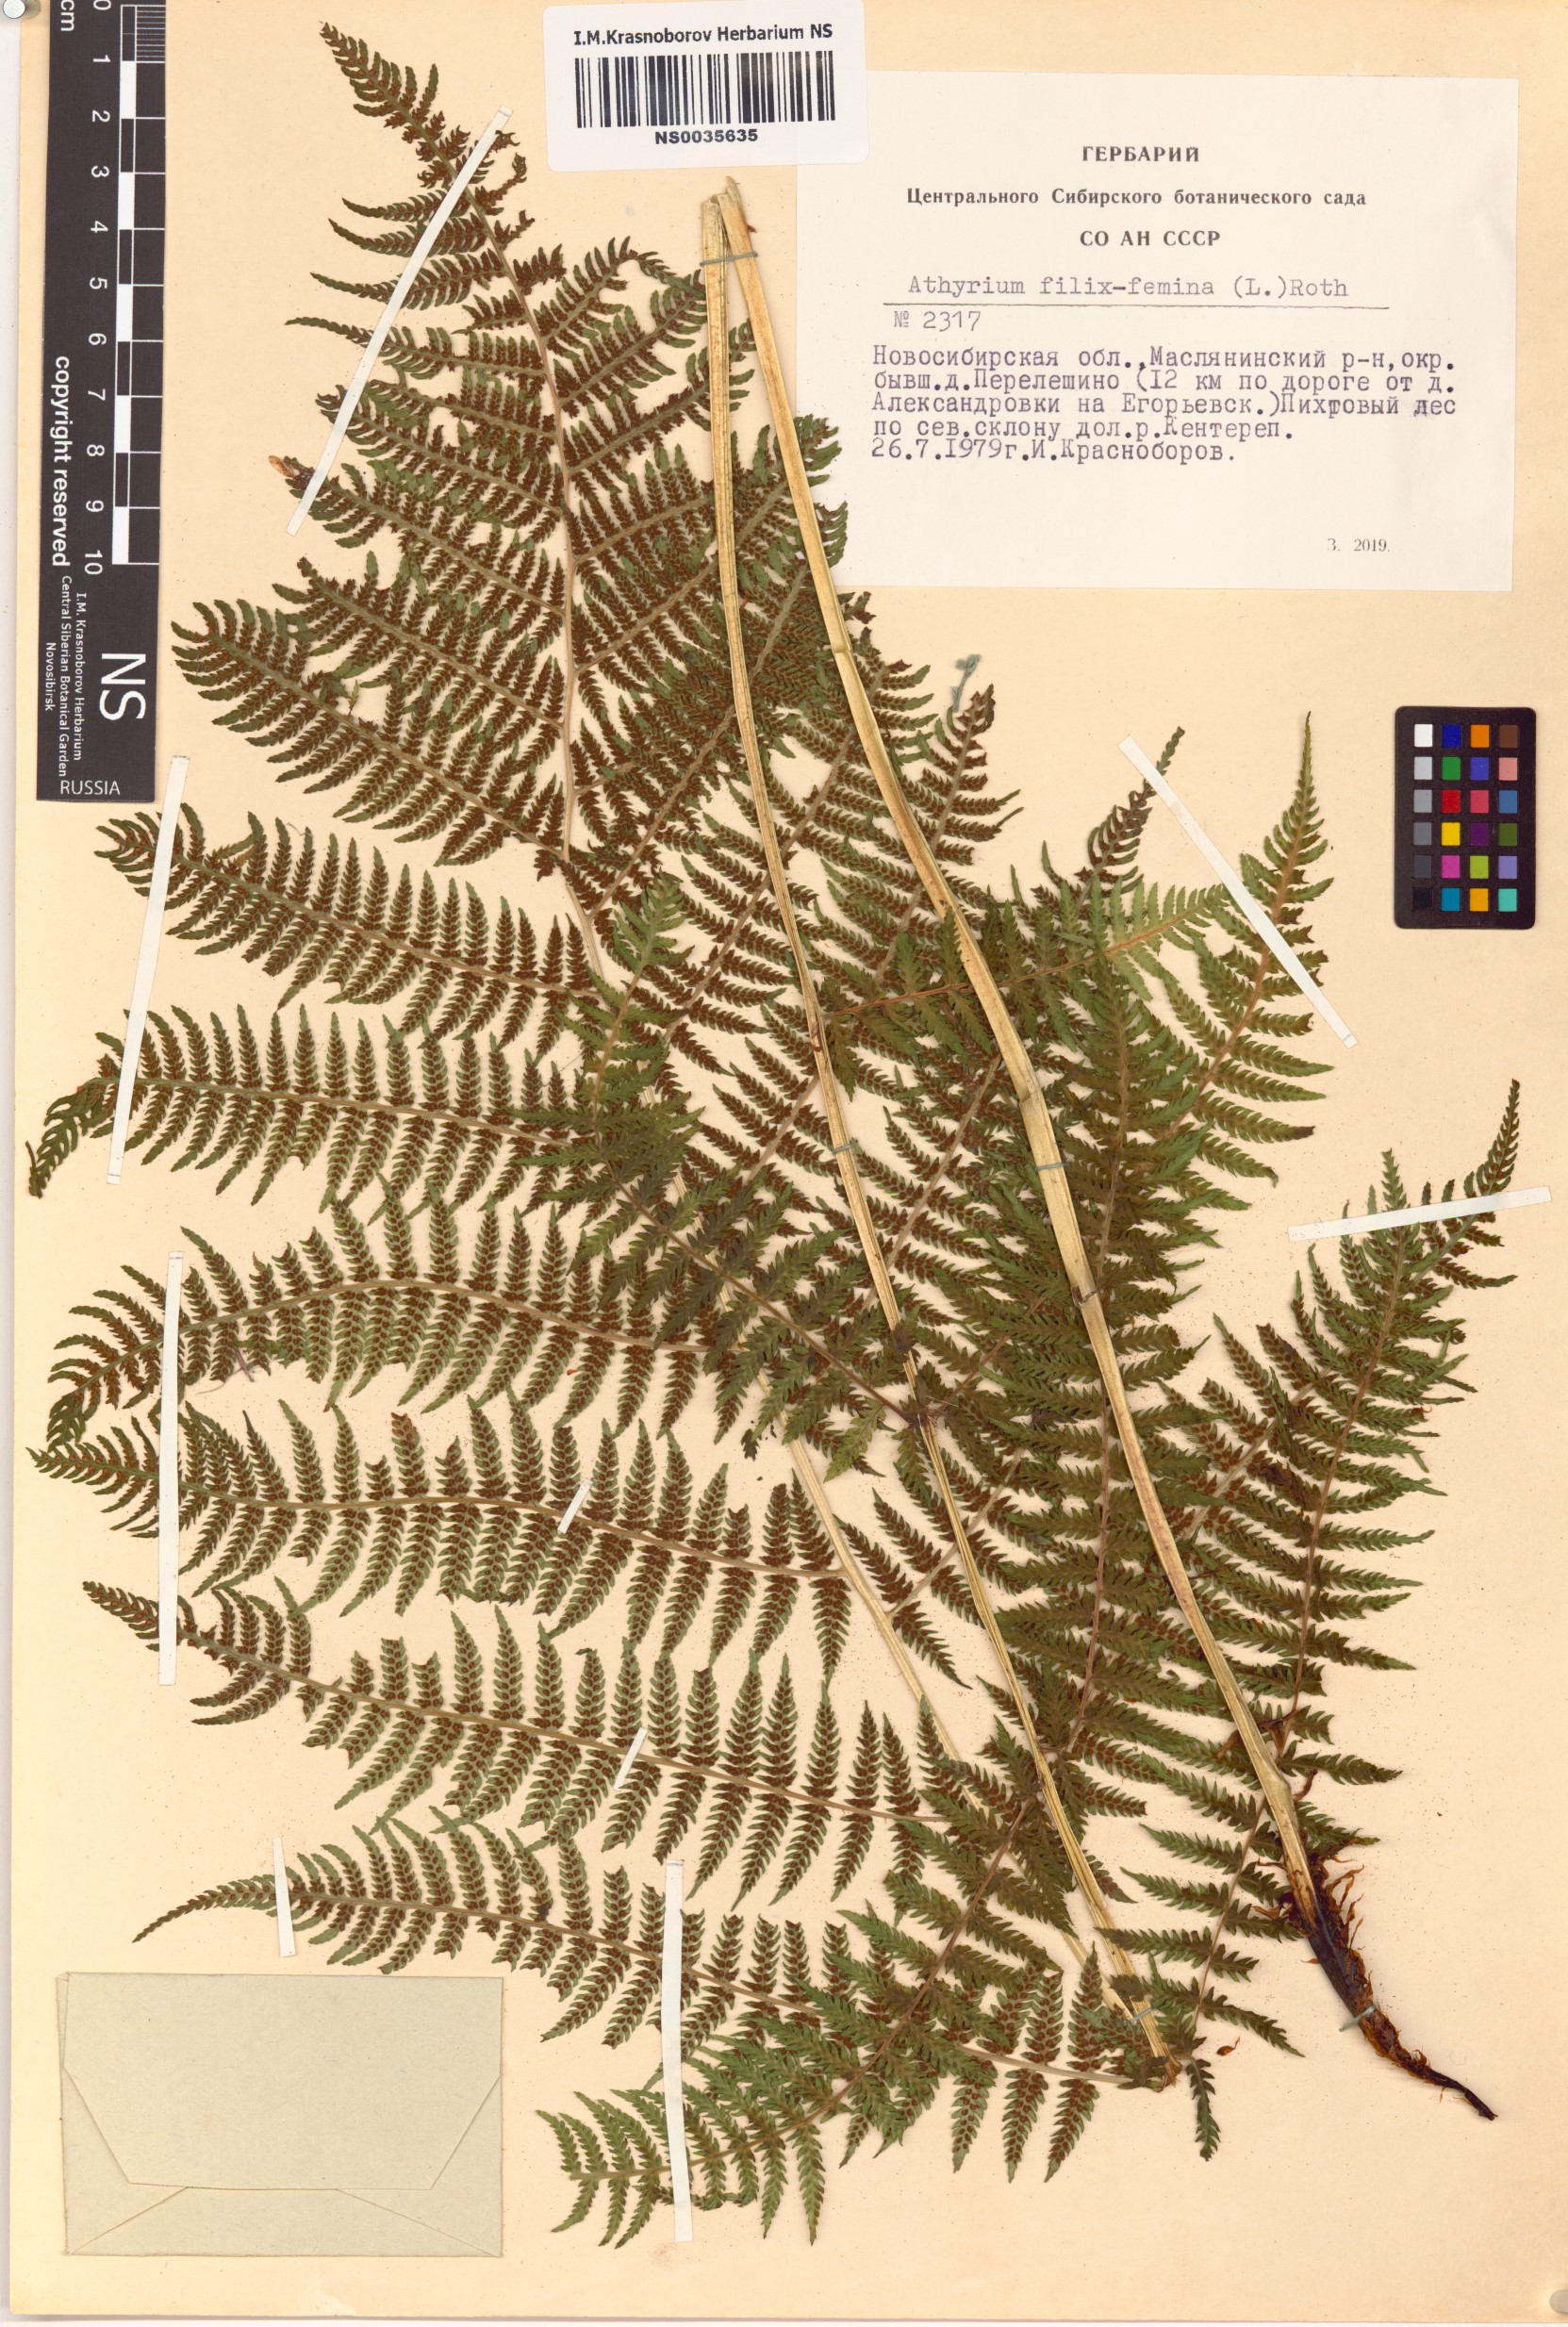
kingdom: Plantae
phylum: Tracheophyta
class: Polypodiopsida
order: Polypodiales
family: Athyriaceae
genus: Athyrium
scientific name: Athyrium filix-femina
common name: Lady fern
